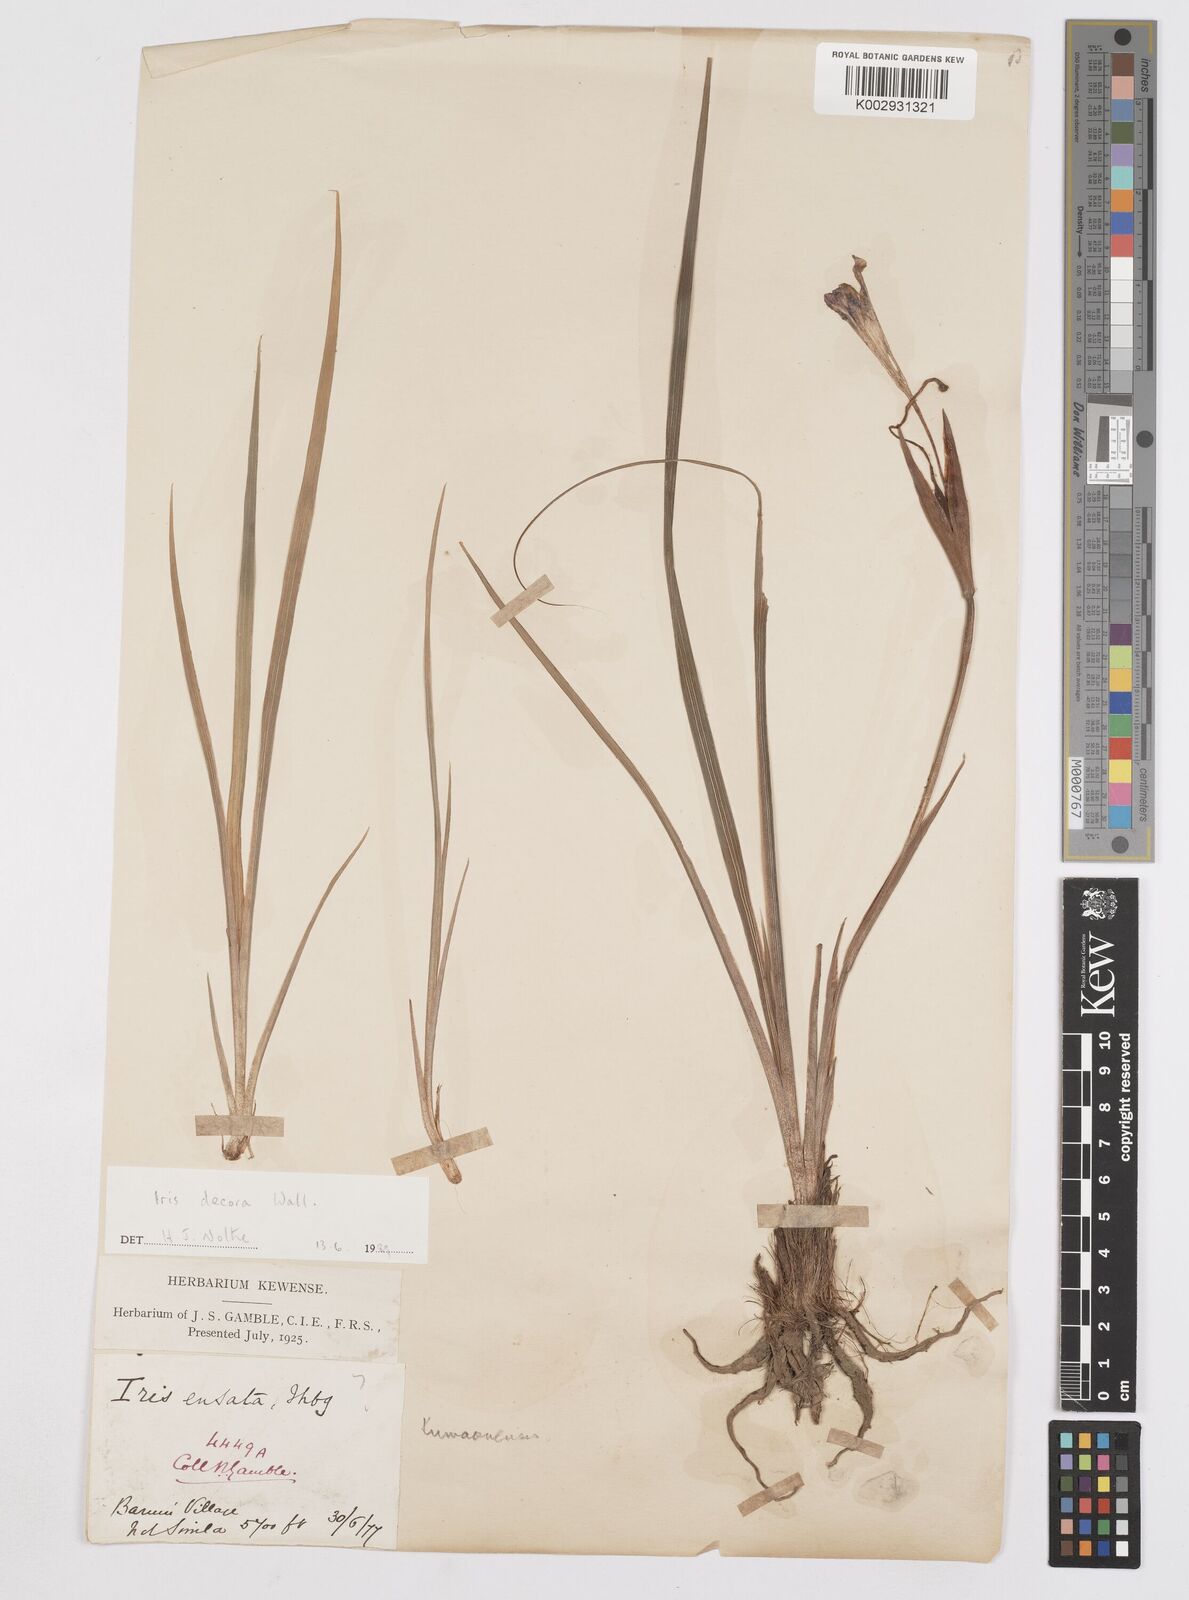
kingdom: Plantae
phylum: Tracheophyta
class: Liliopsida
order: Asparagales
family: Iridaceae
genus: Iris
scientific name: Iris decora
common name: Nepal iris
